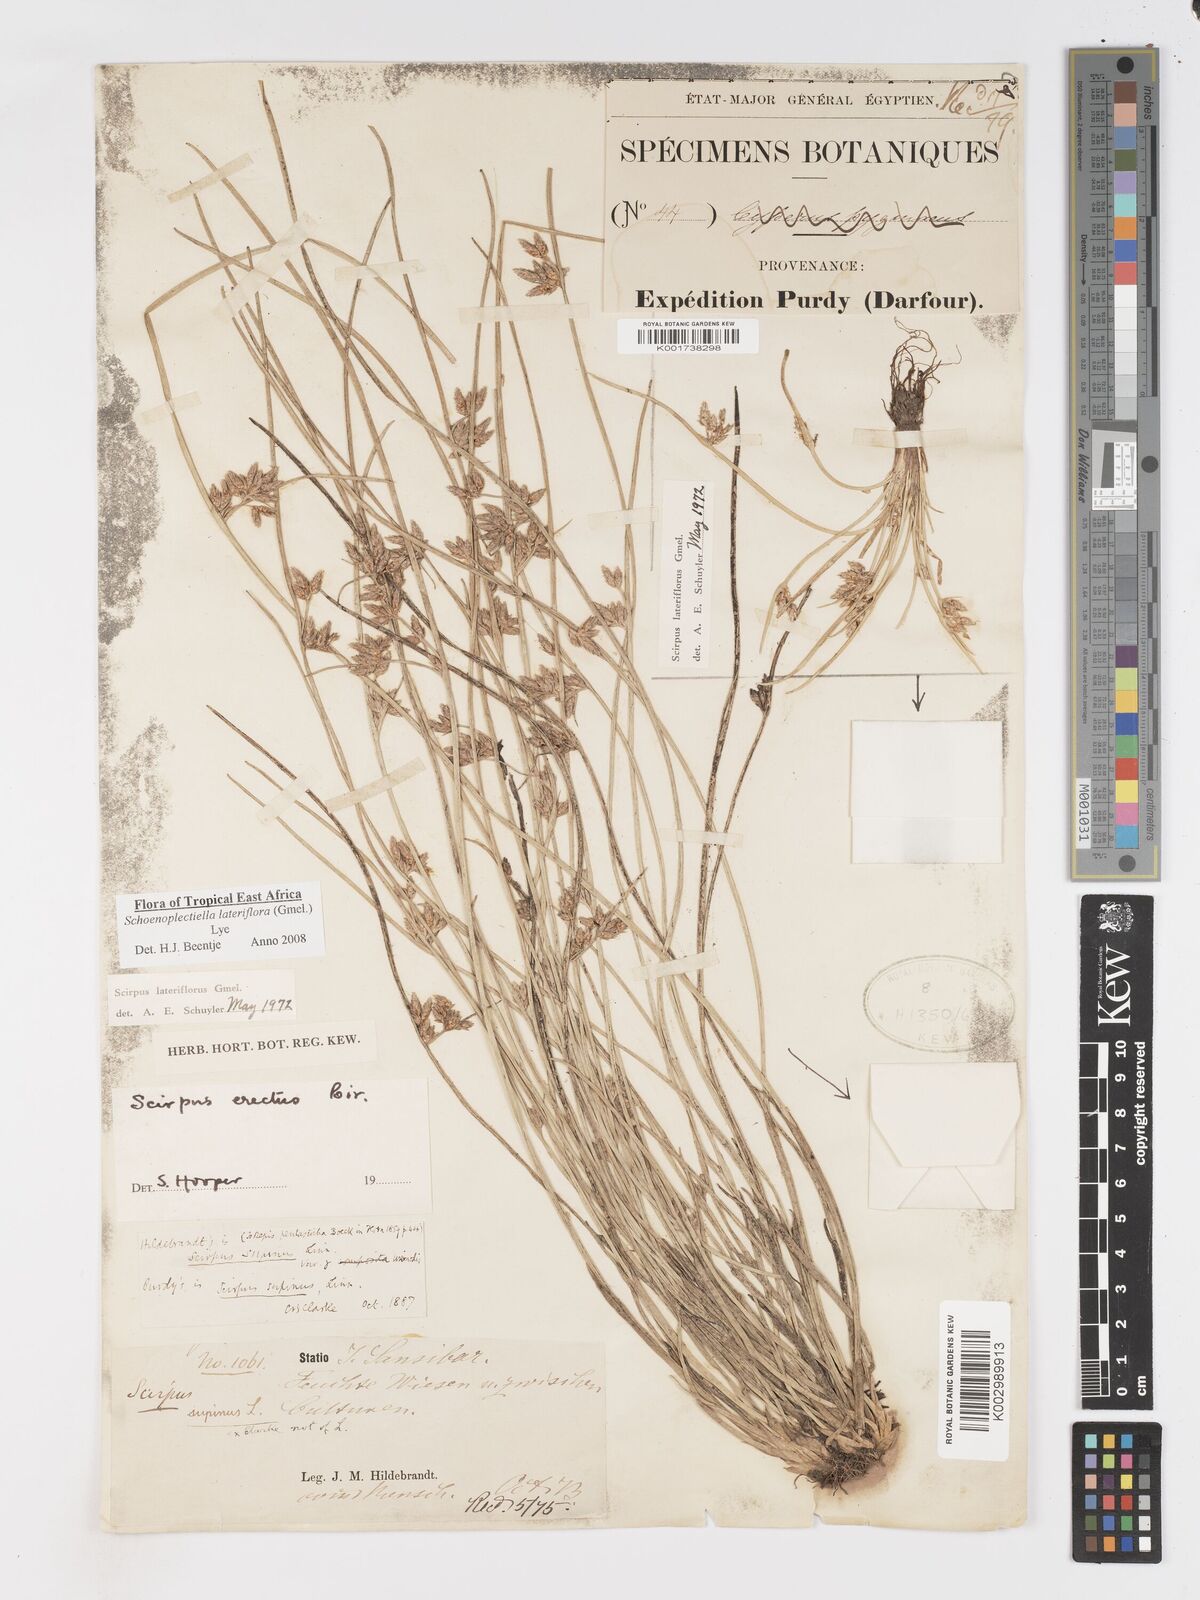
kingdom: Plantae
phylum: Tracheophyta
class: Liliopsida
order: Poales
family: Cyperaceae
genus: Schoenoplectiella
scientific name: Schoenoplectiella lateriflora
